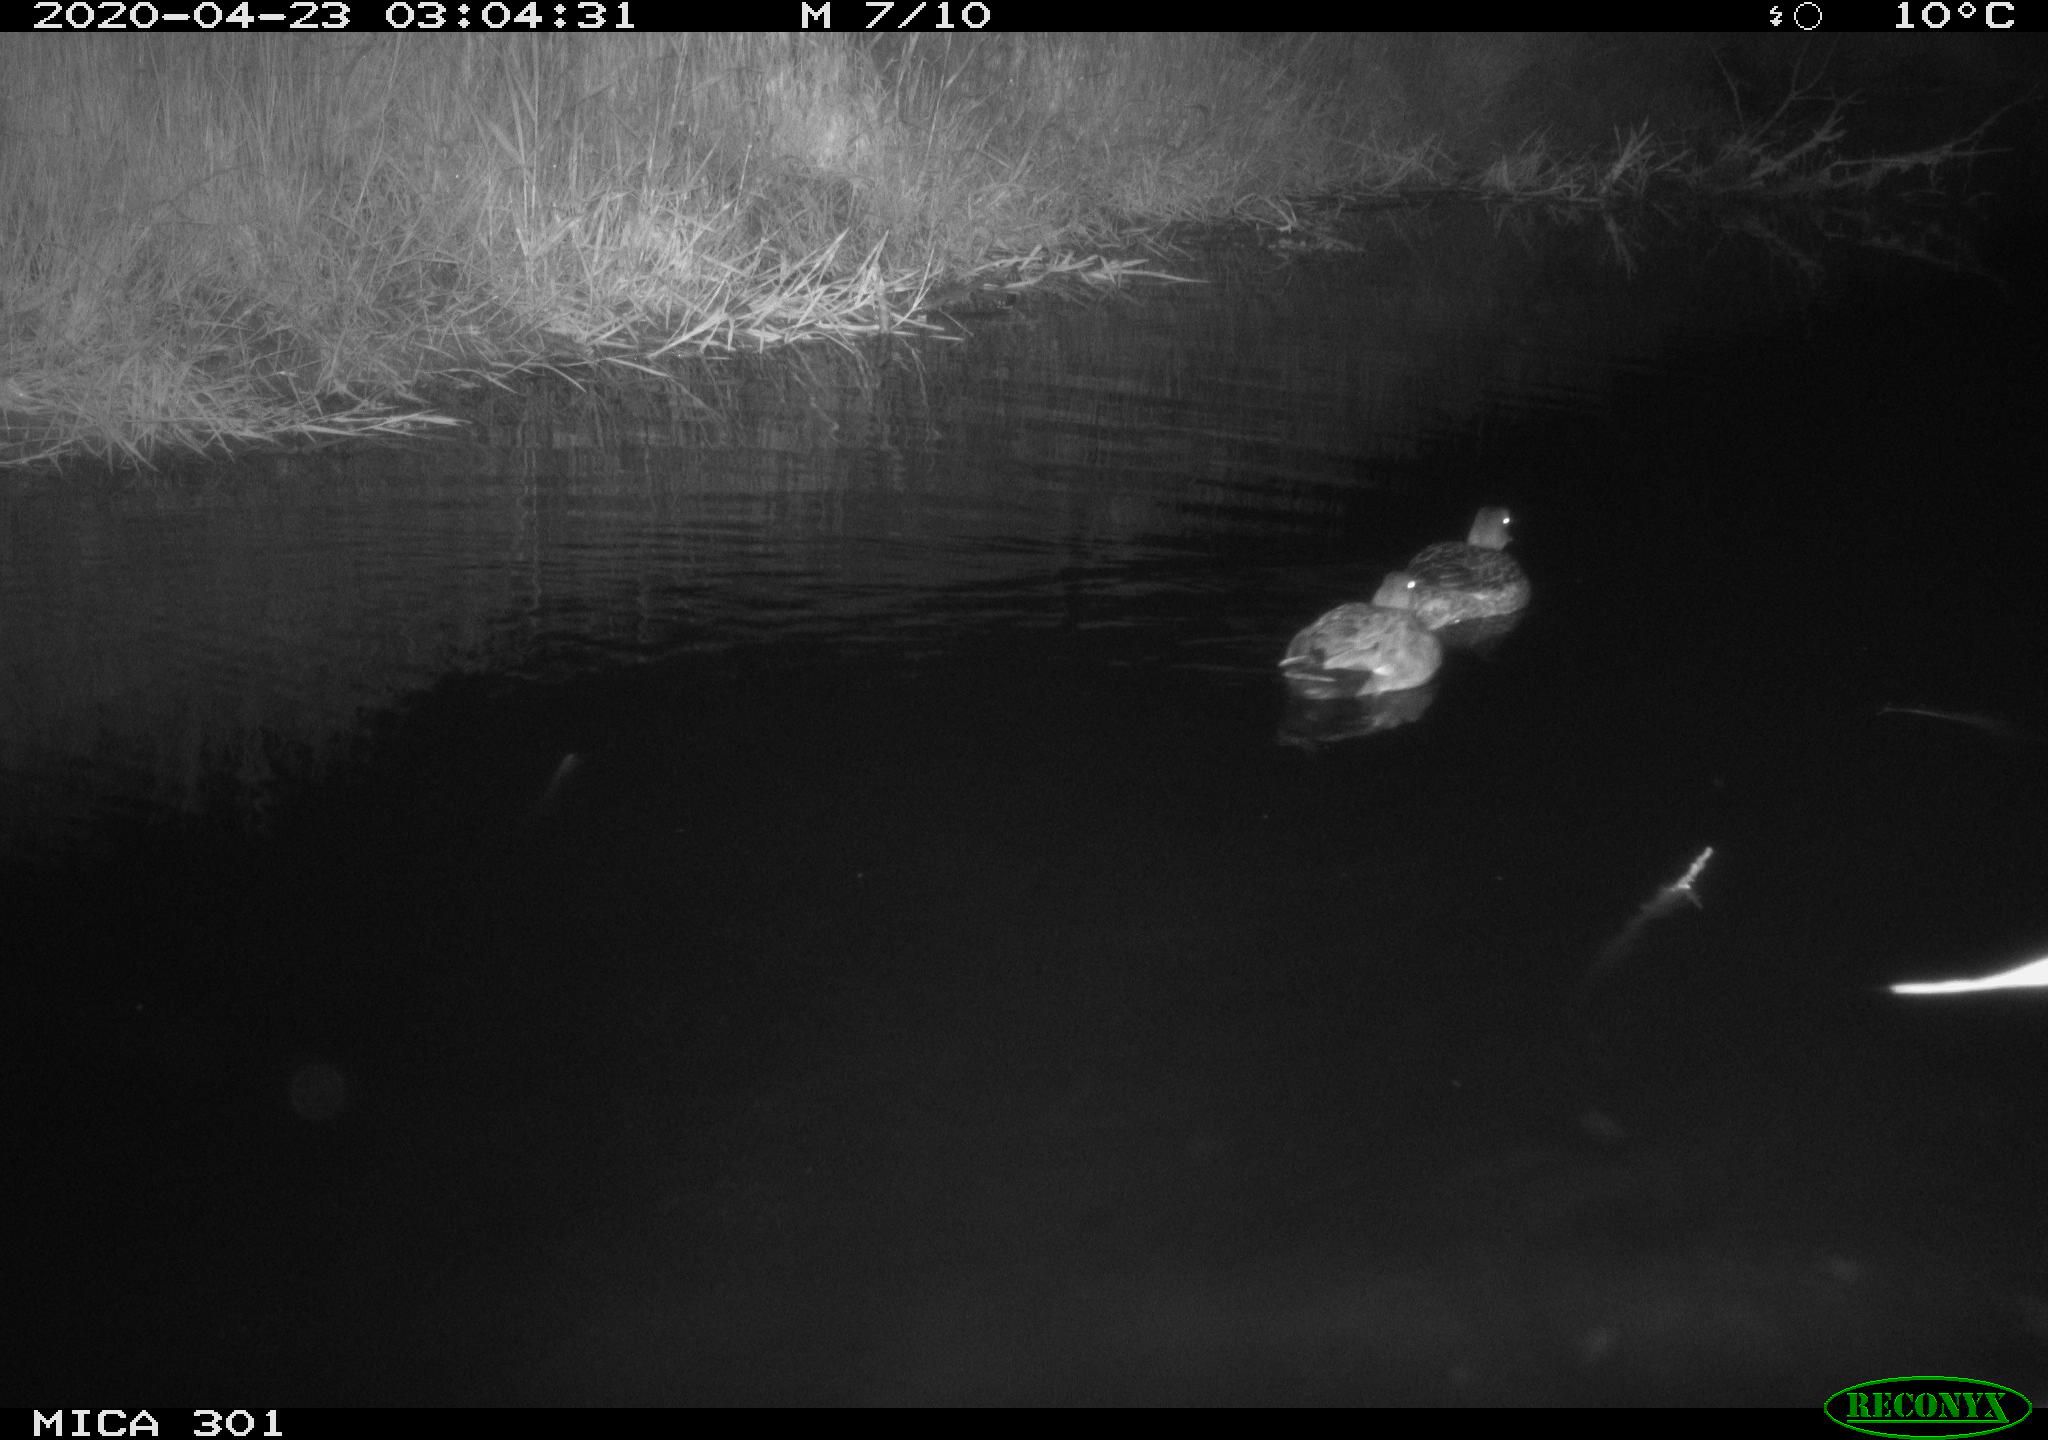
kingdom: Animalia
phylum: Chordata
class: Aves
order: Anseriformes
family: Anatidae
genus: Mareca
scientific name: Mareca strepera
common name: Gadwall
